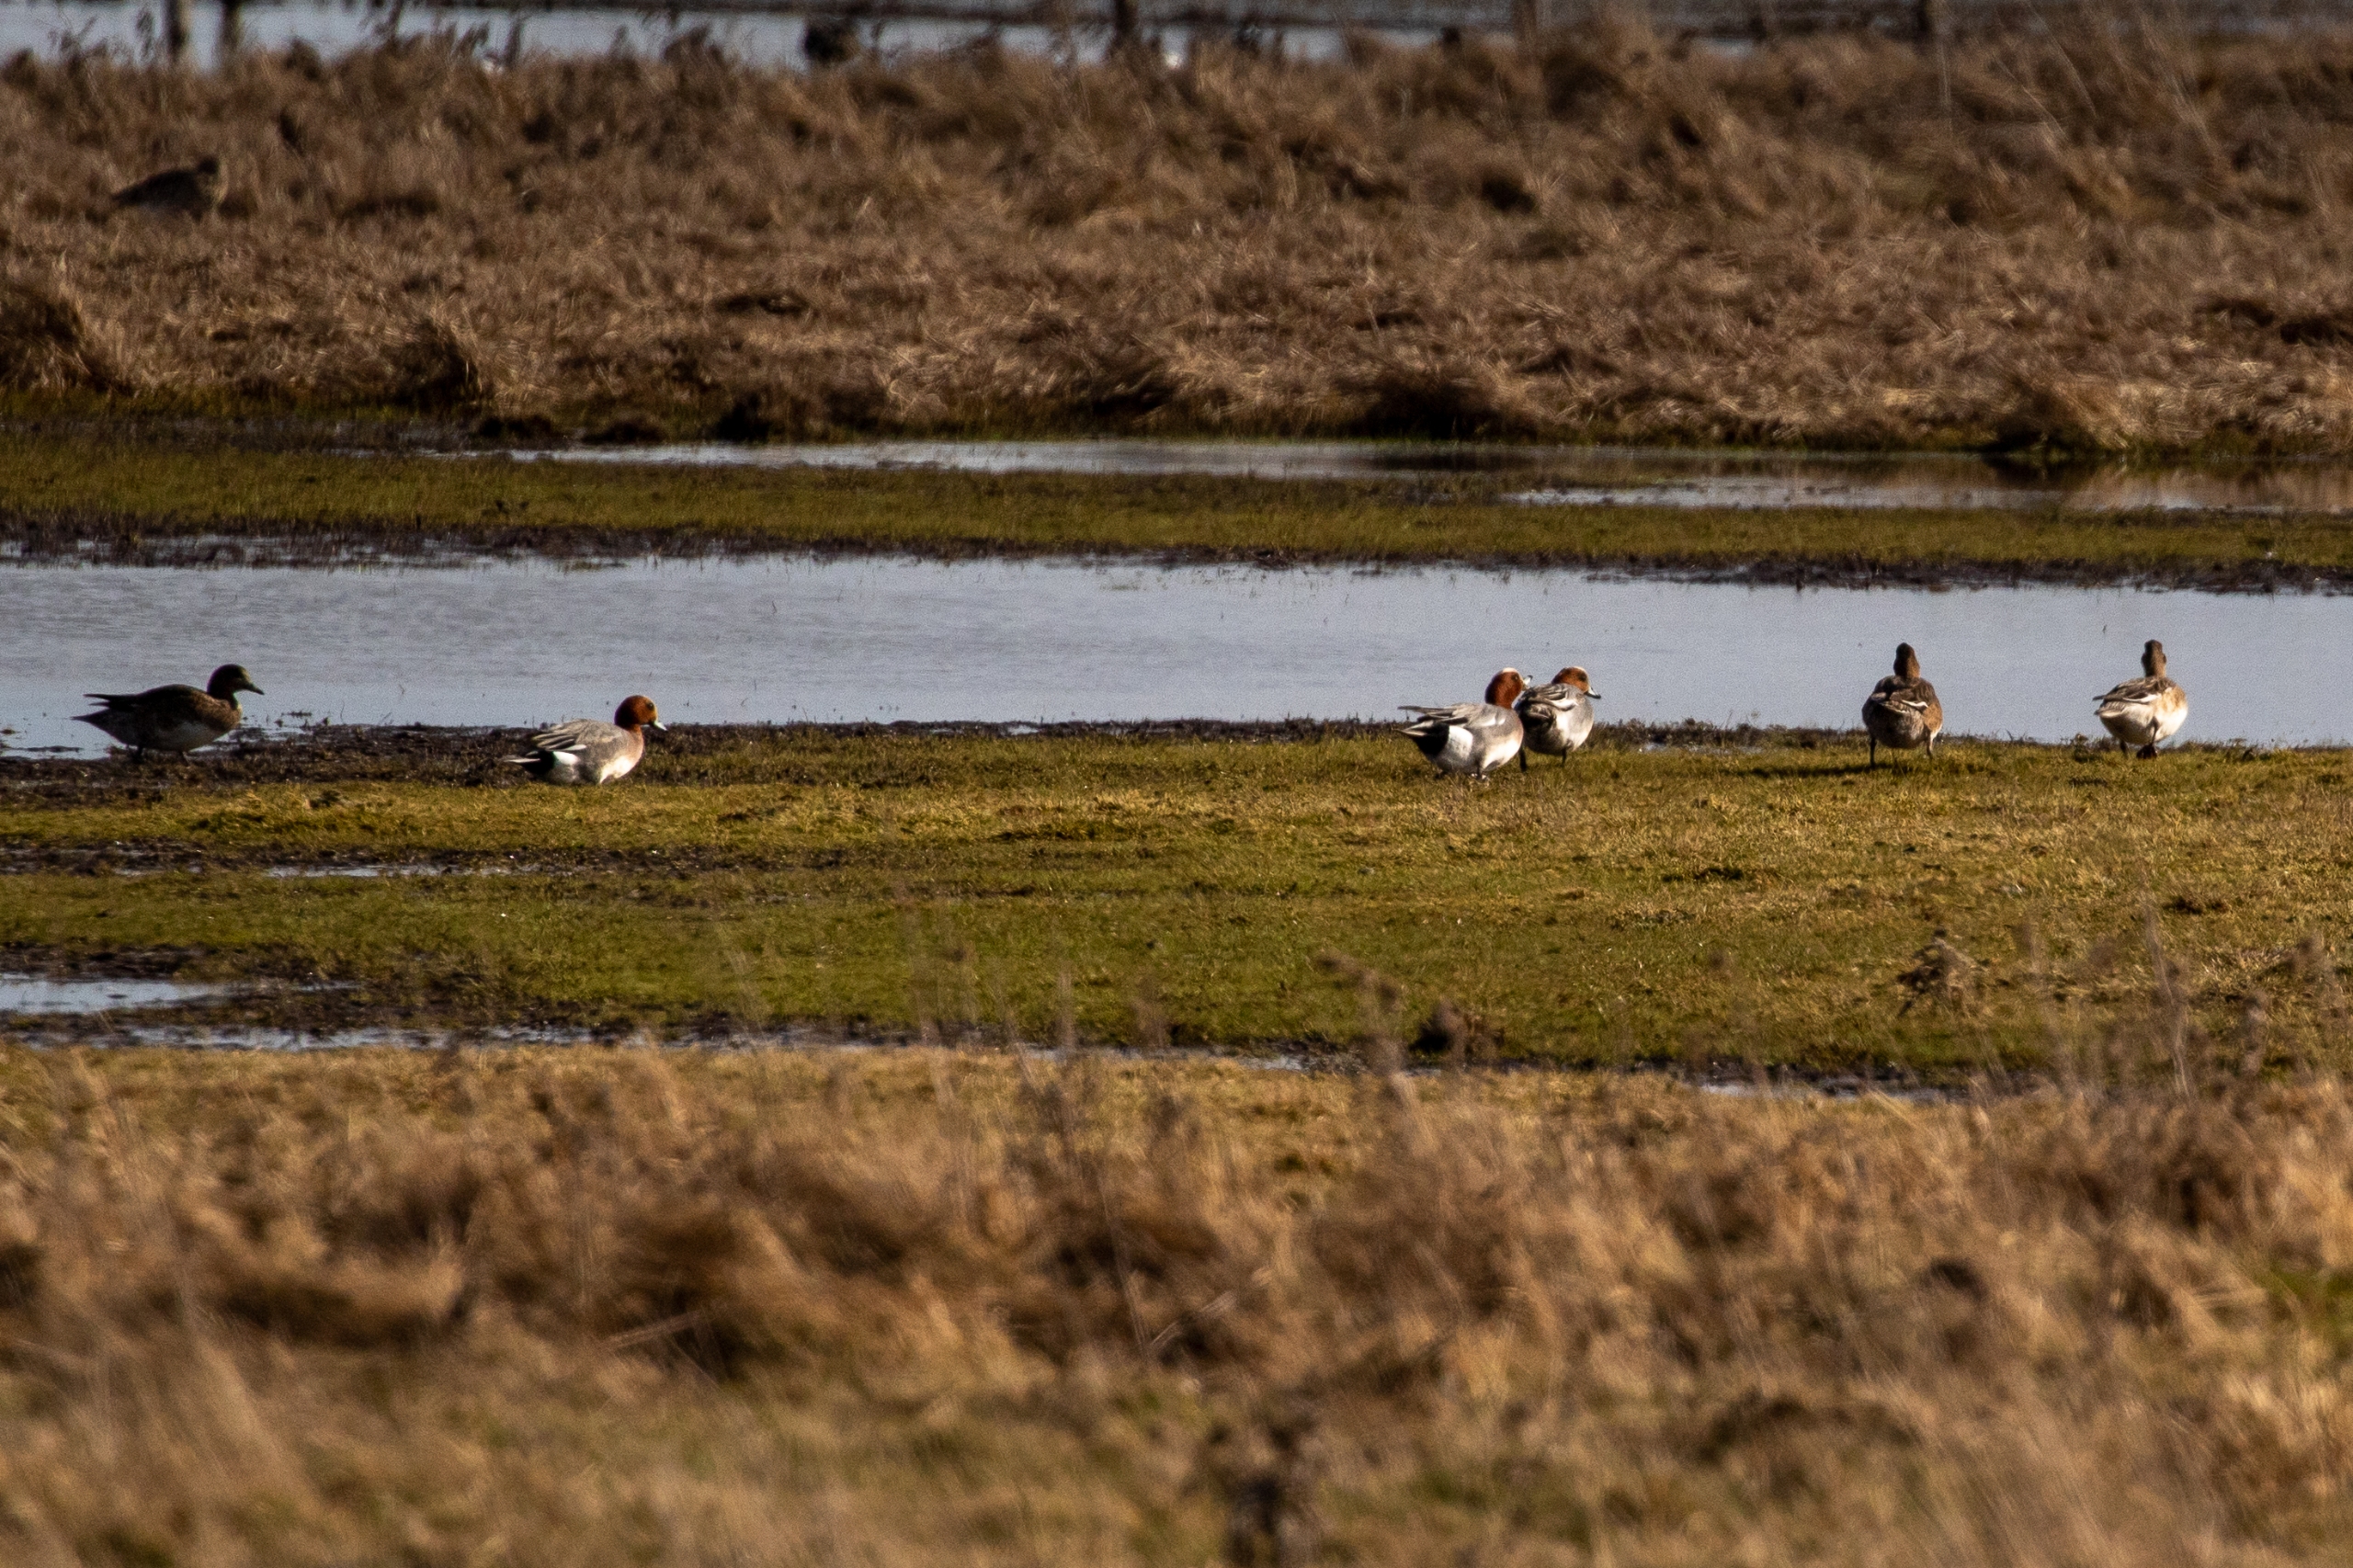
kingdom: Animalia
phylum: Chordata
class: Aves
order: Anseriformes
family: Anatidae
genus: Mareca
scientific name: Mareca penelope
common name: Pibeand
